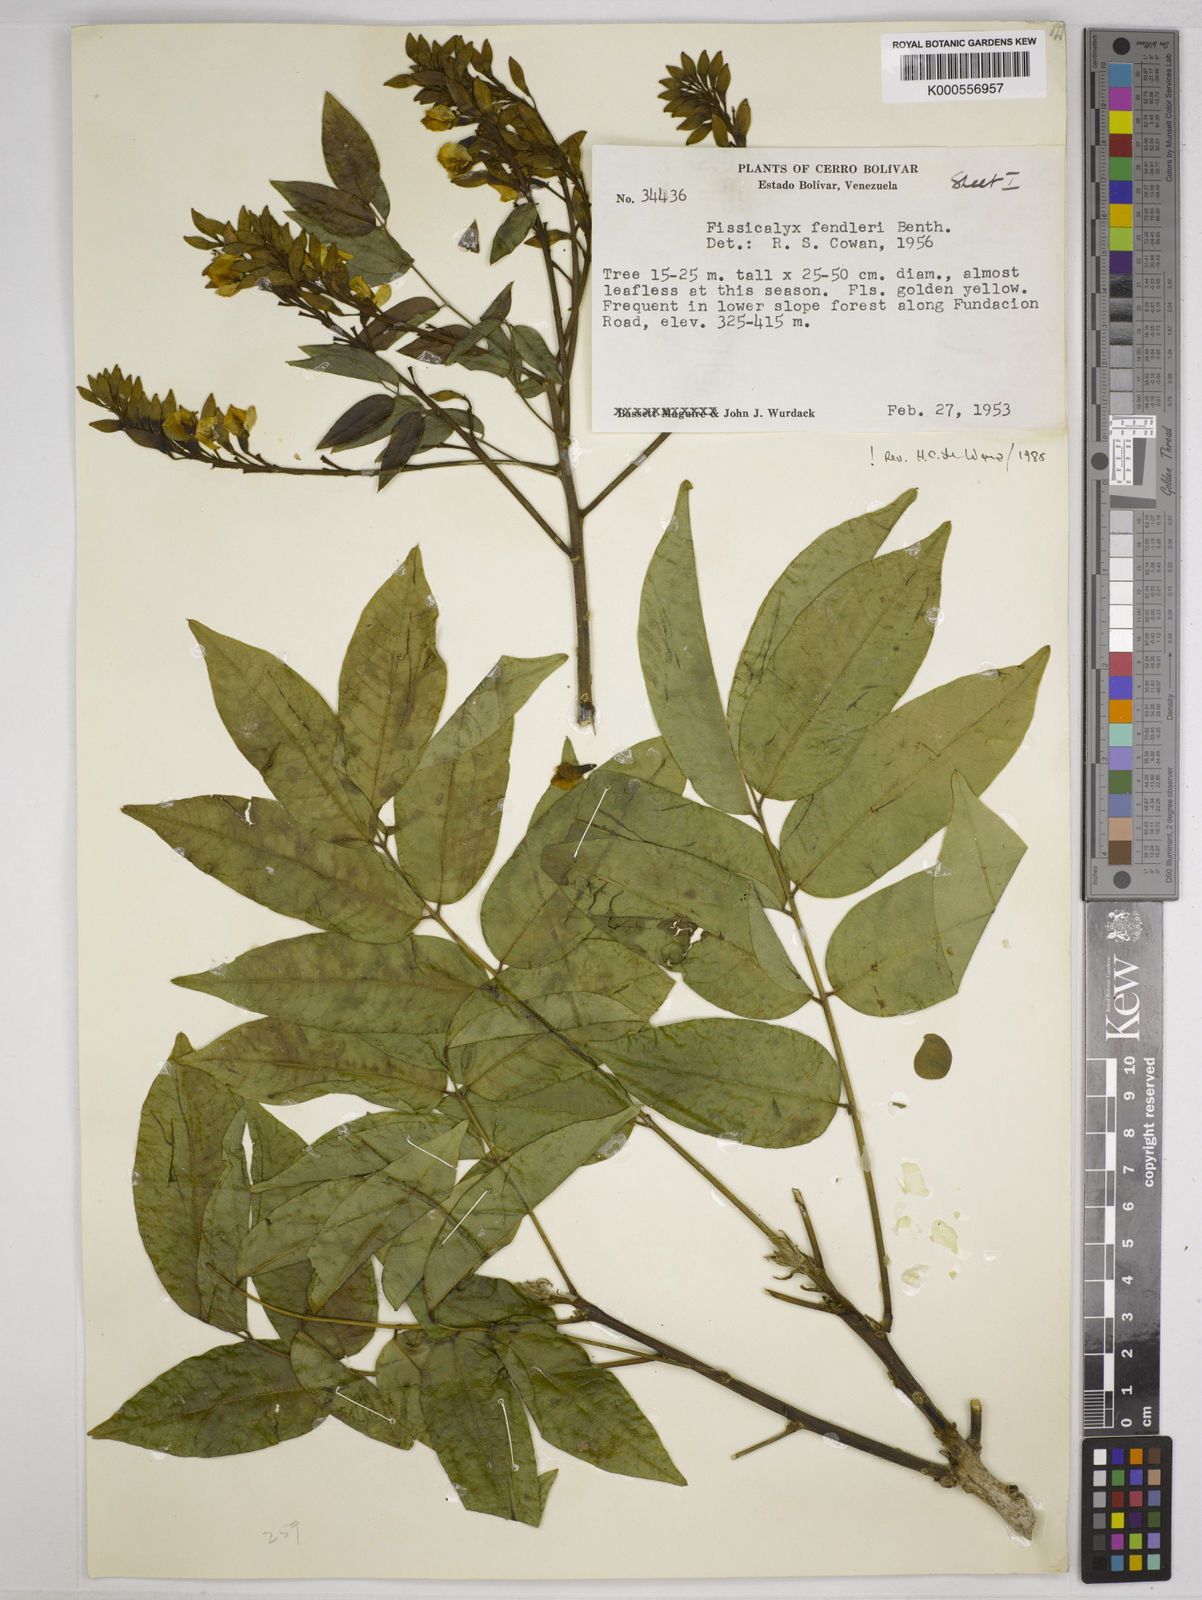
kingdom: Plantae
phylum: Tracheophyta
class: Magnoliopsida
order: Fabales
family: Fabaceae
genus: Fissicalyx
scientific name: Fissicalyx fendleri
